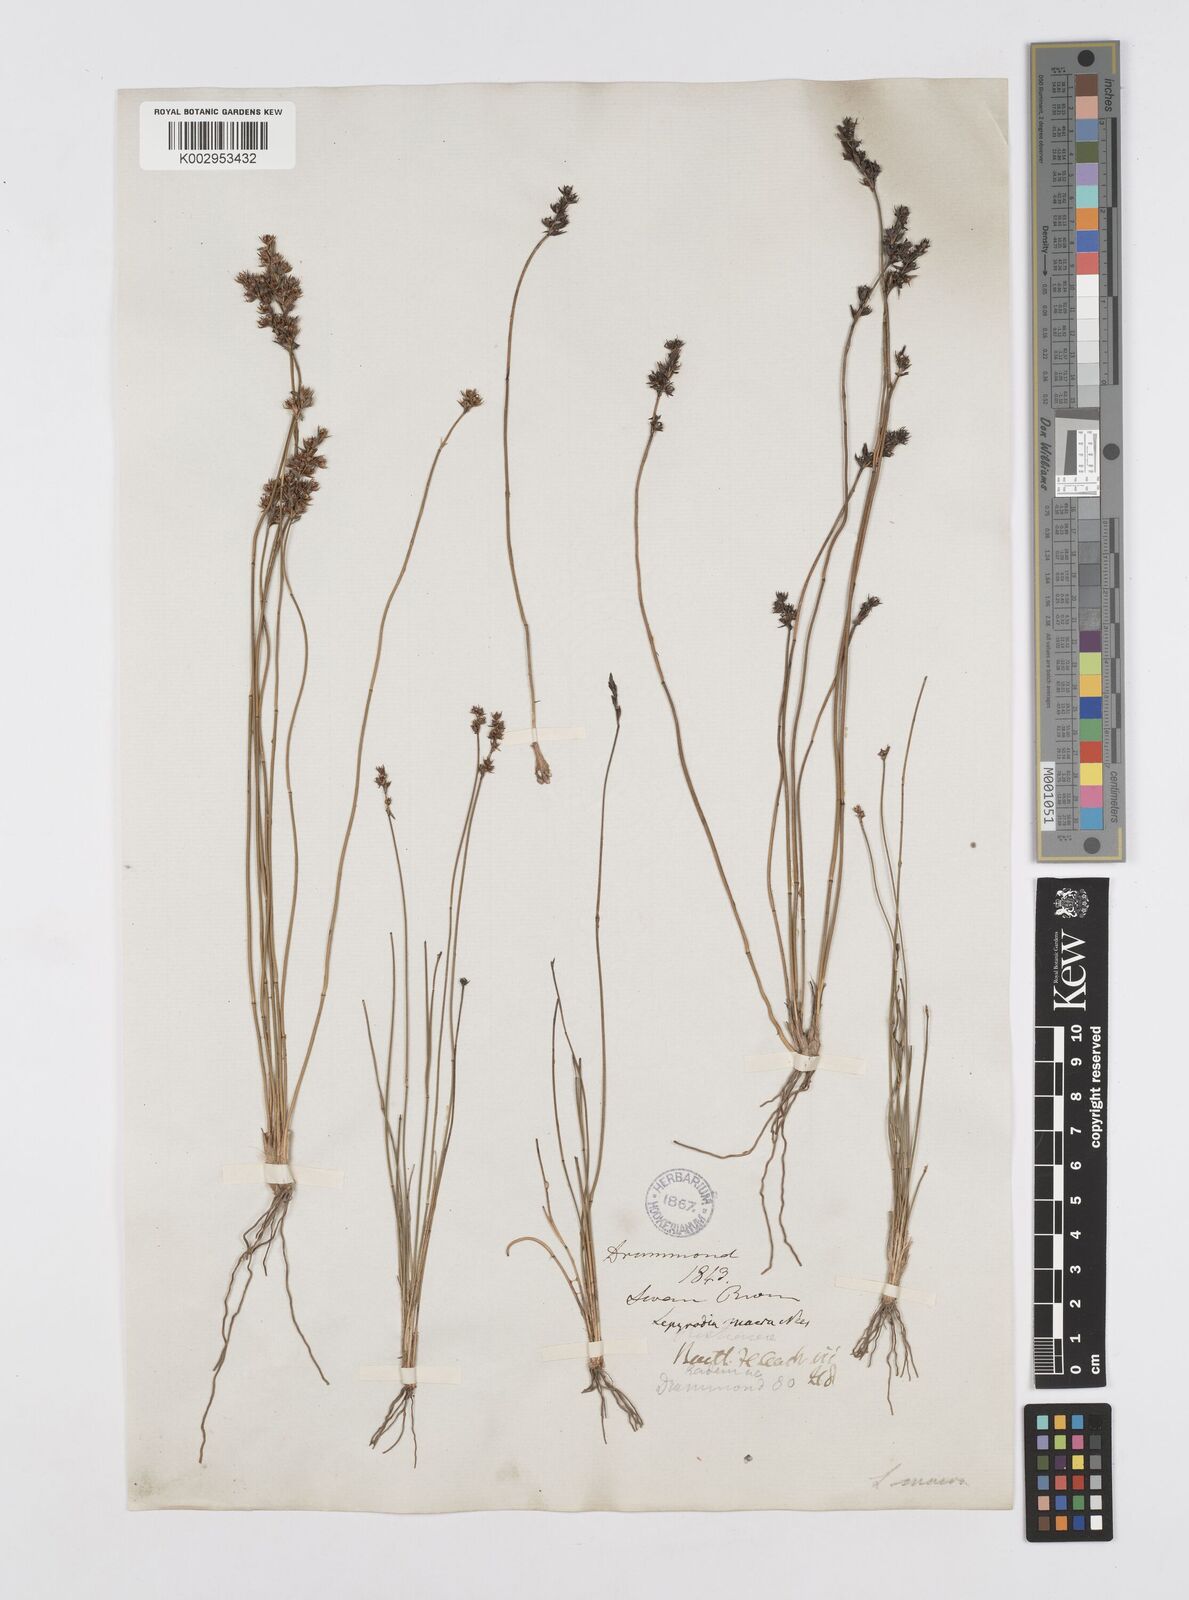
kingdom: Plantae
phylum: Tracheophyta
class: Liliopsida
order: Poales
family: Restionaceae
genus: Lepyrodia
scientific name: Lepyrodia macra
